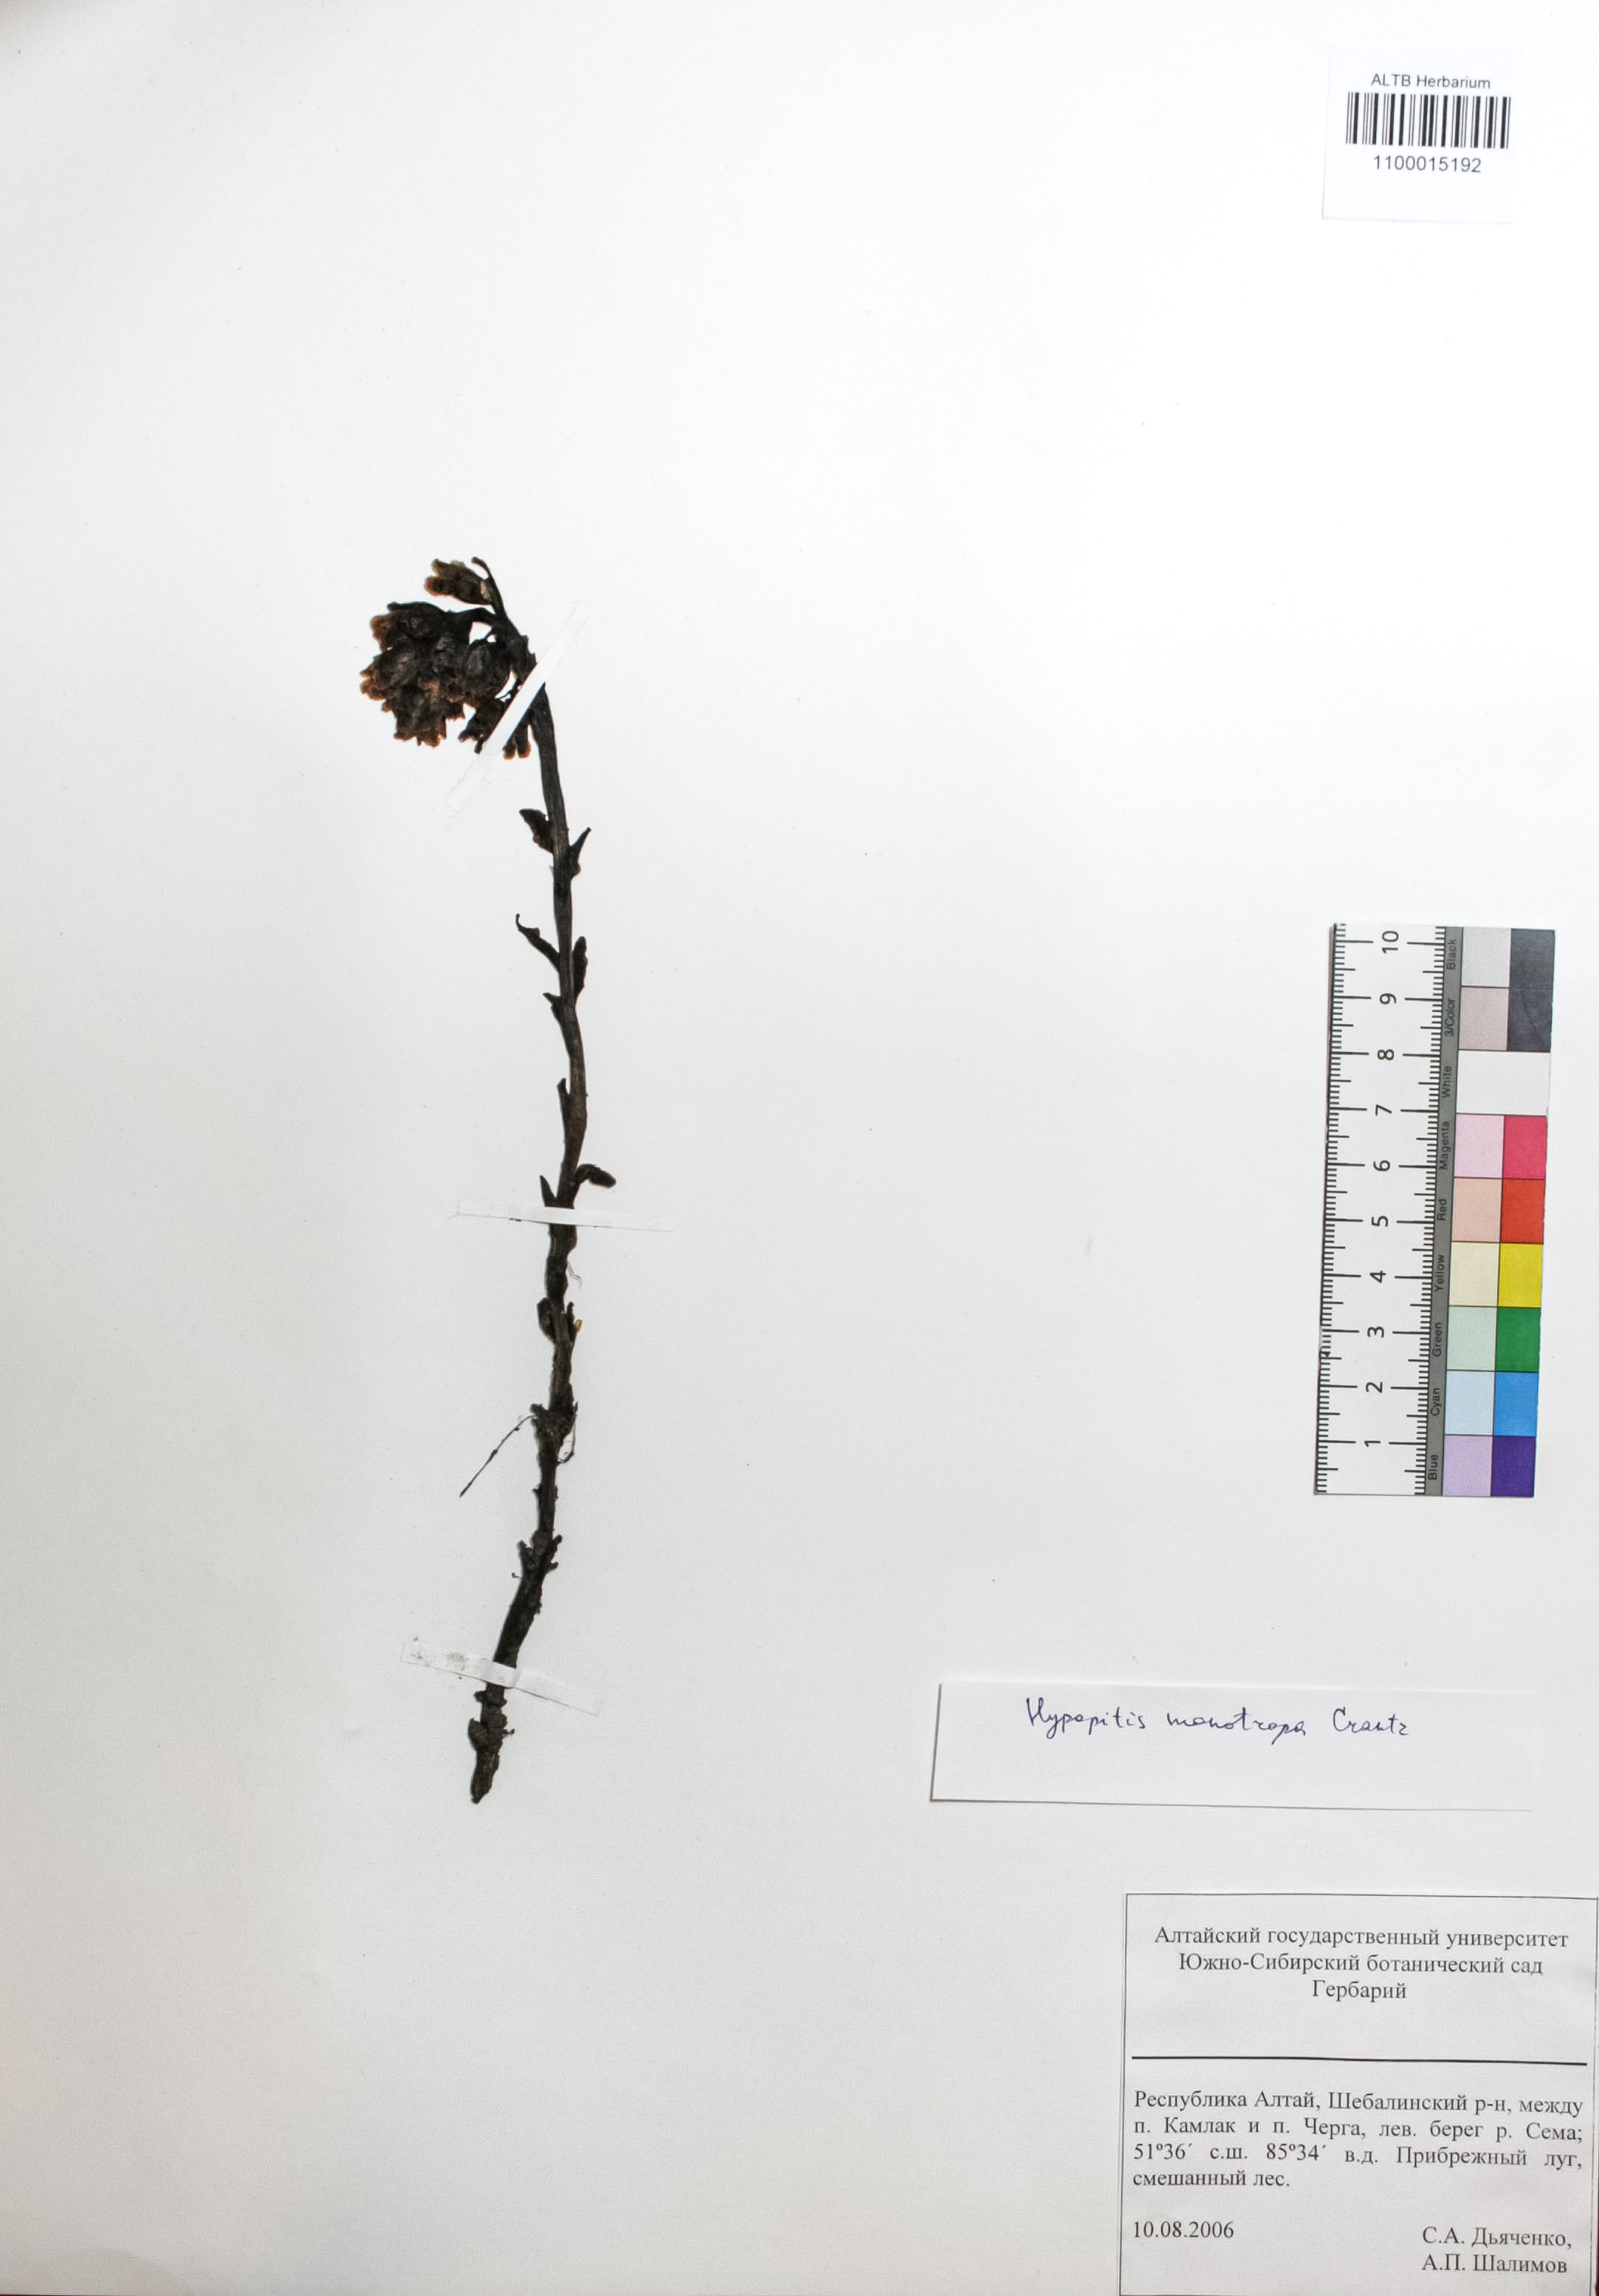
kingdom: Plantae
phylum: Tracheophyta
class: Magnoliopsida
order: Ericales
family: Ericaceae
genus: Hypopitys
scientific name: Hypopitys monotropa
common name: Yellow bird's-nest
